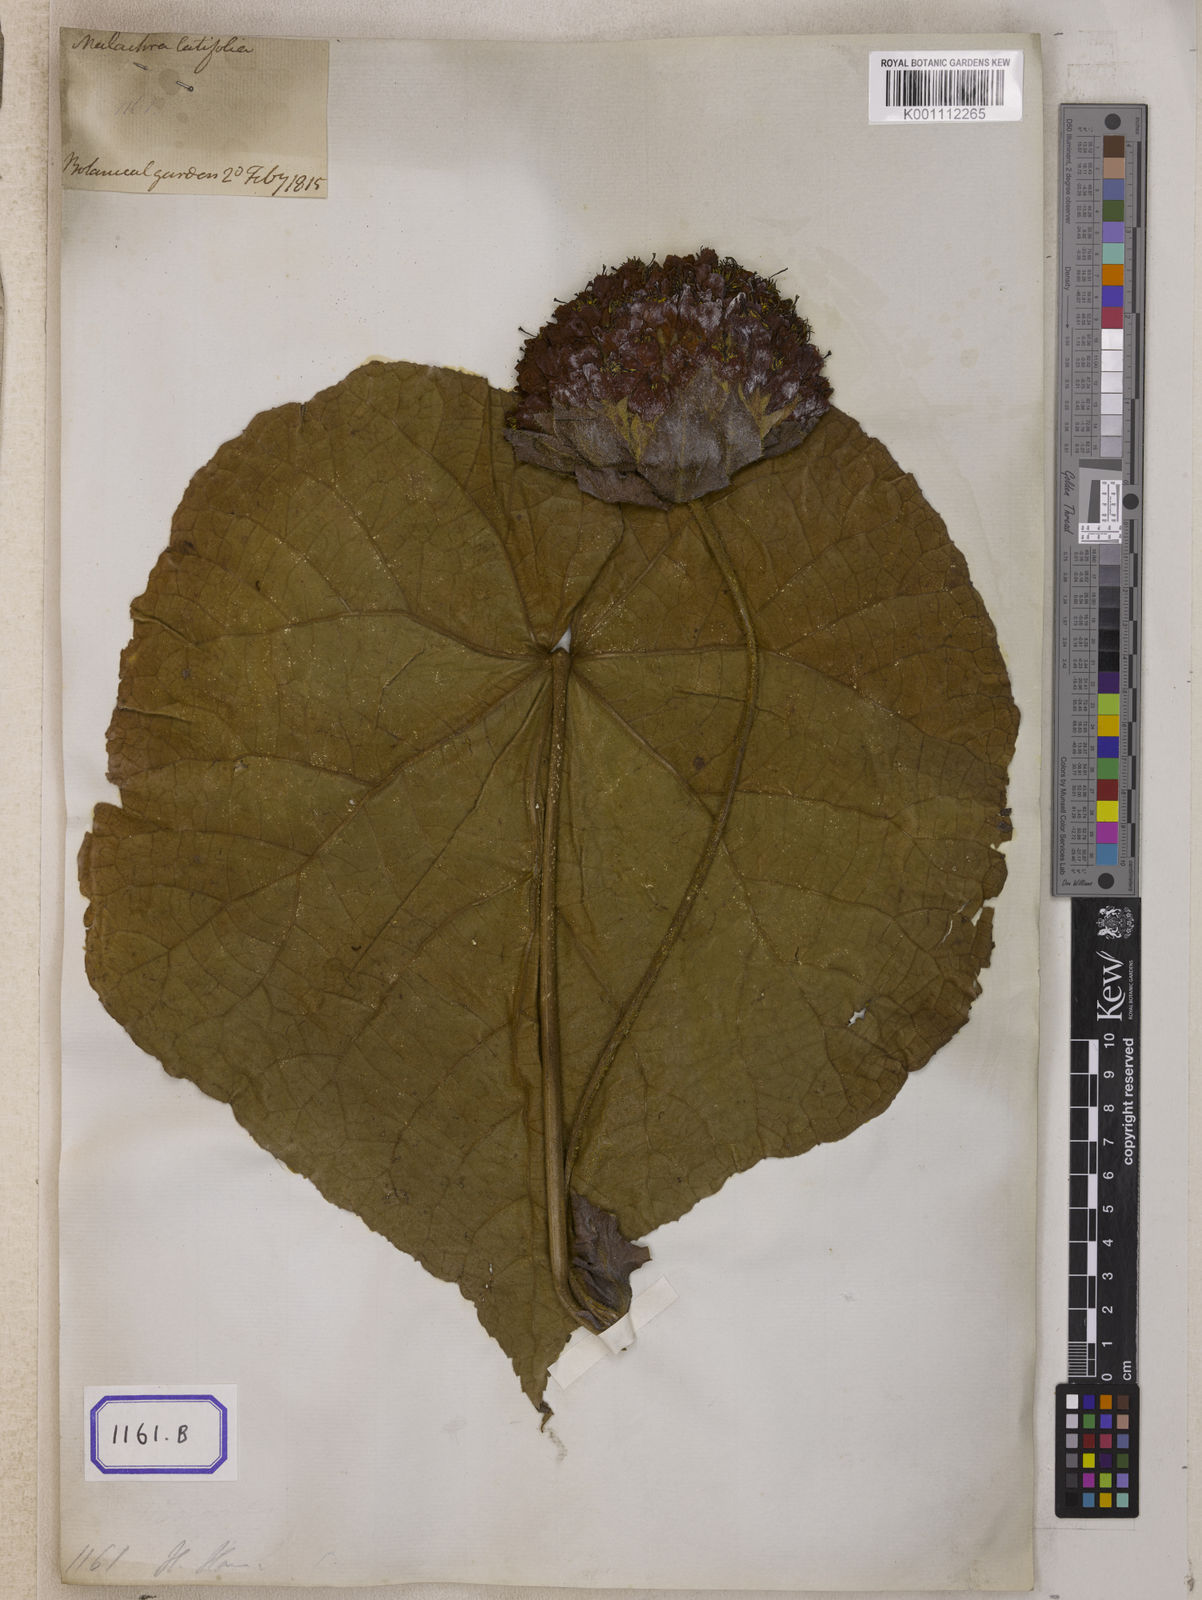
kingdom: Plantae
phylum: Tracheophyta
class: Magnoliopsida
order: Malvales
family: Malvaceae
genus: Dombeya
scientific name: Dombeya wallichii
